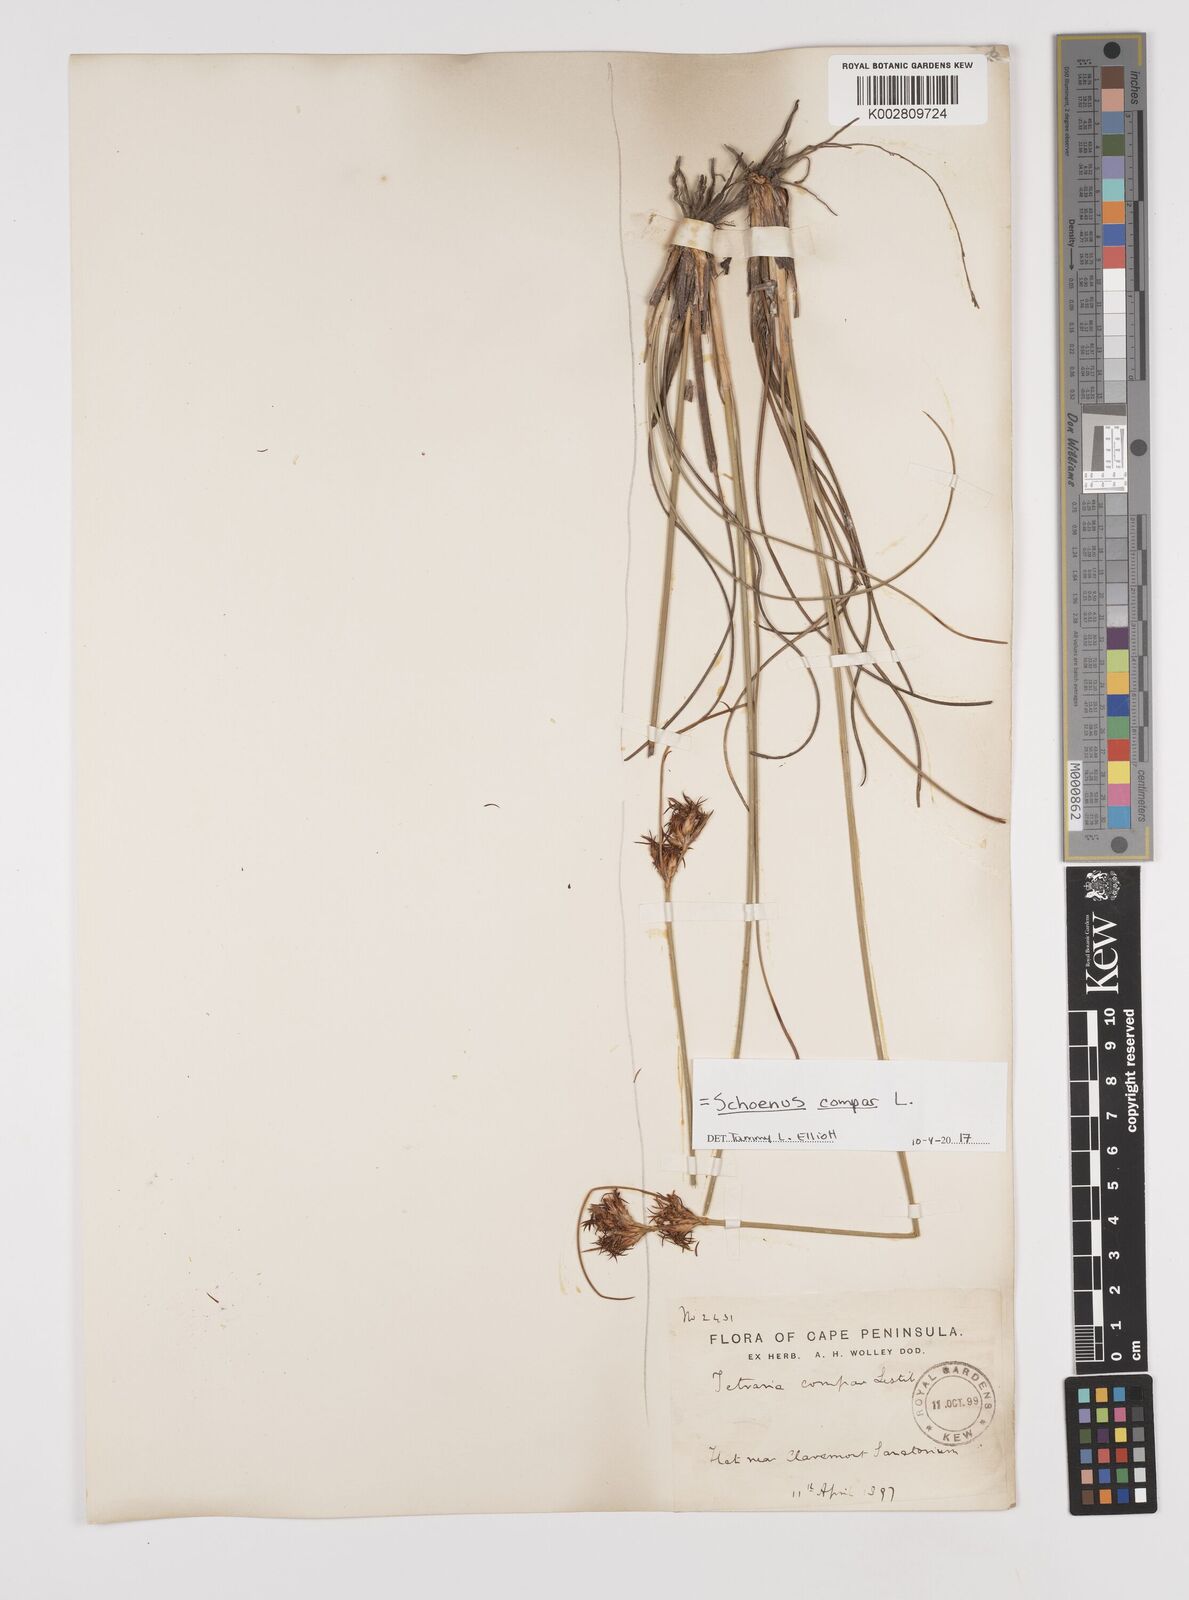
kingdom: Plantae
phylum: Tracheophyta
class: Liliopsida
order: Poales
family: Cyperaceae
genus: Schoenus
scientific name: Schoenus compar
